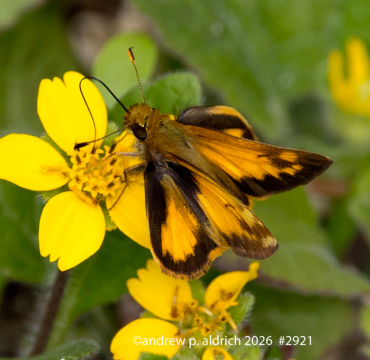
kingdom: Animalia
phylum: Arthropoda
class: Insecta
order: Lepidoptera
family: Hesperiidae
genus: Lon
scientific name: Lon zabulon
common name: Zabulon Skipper
